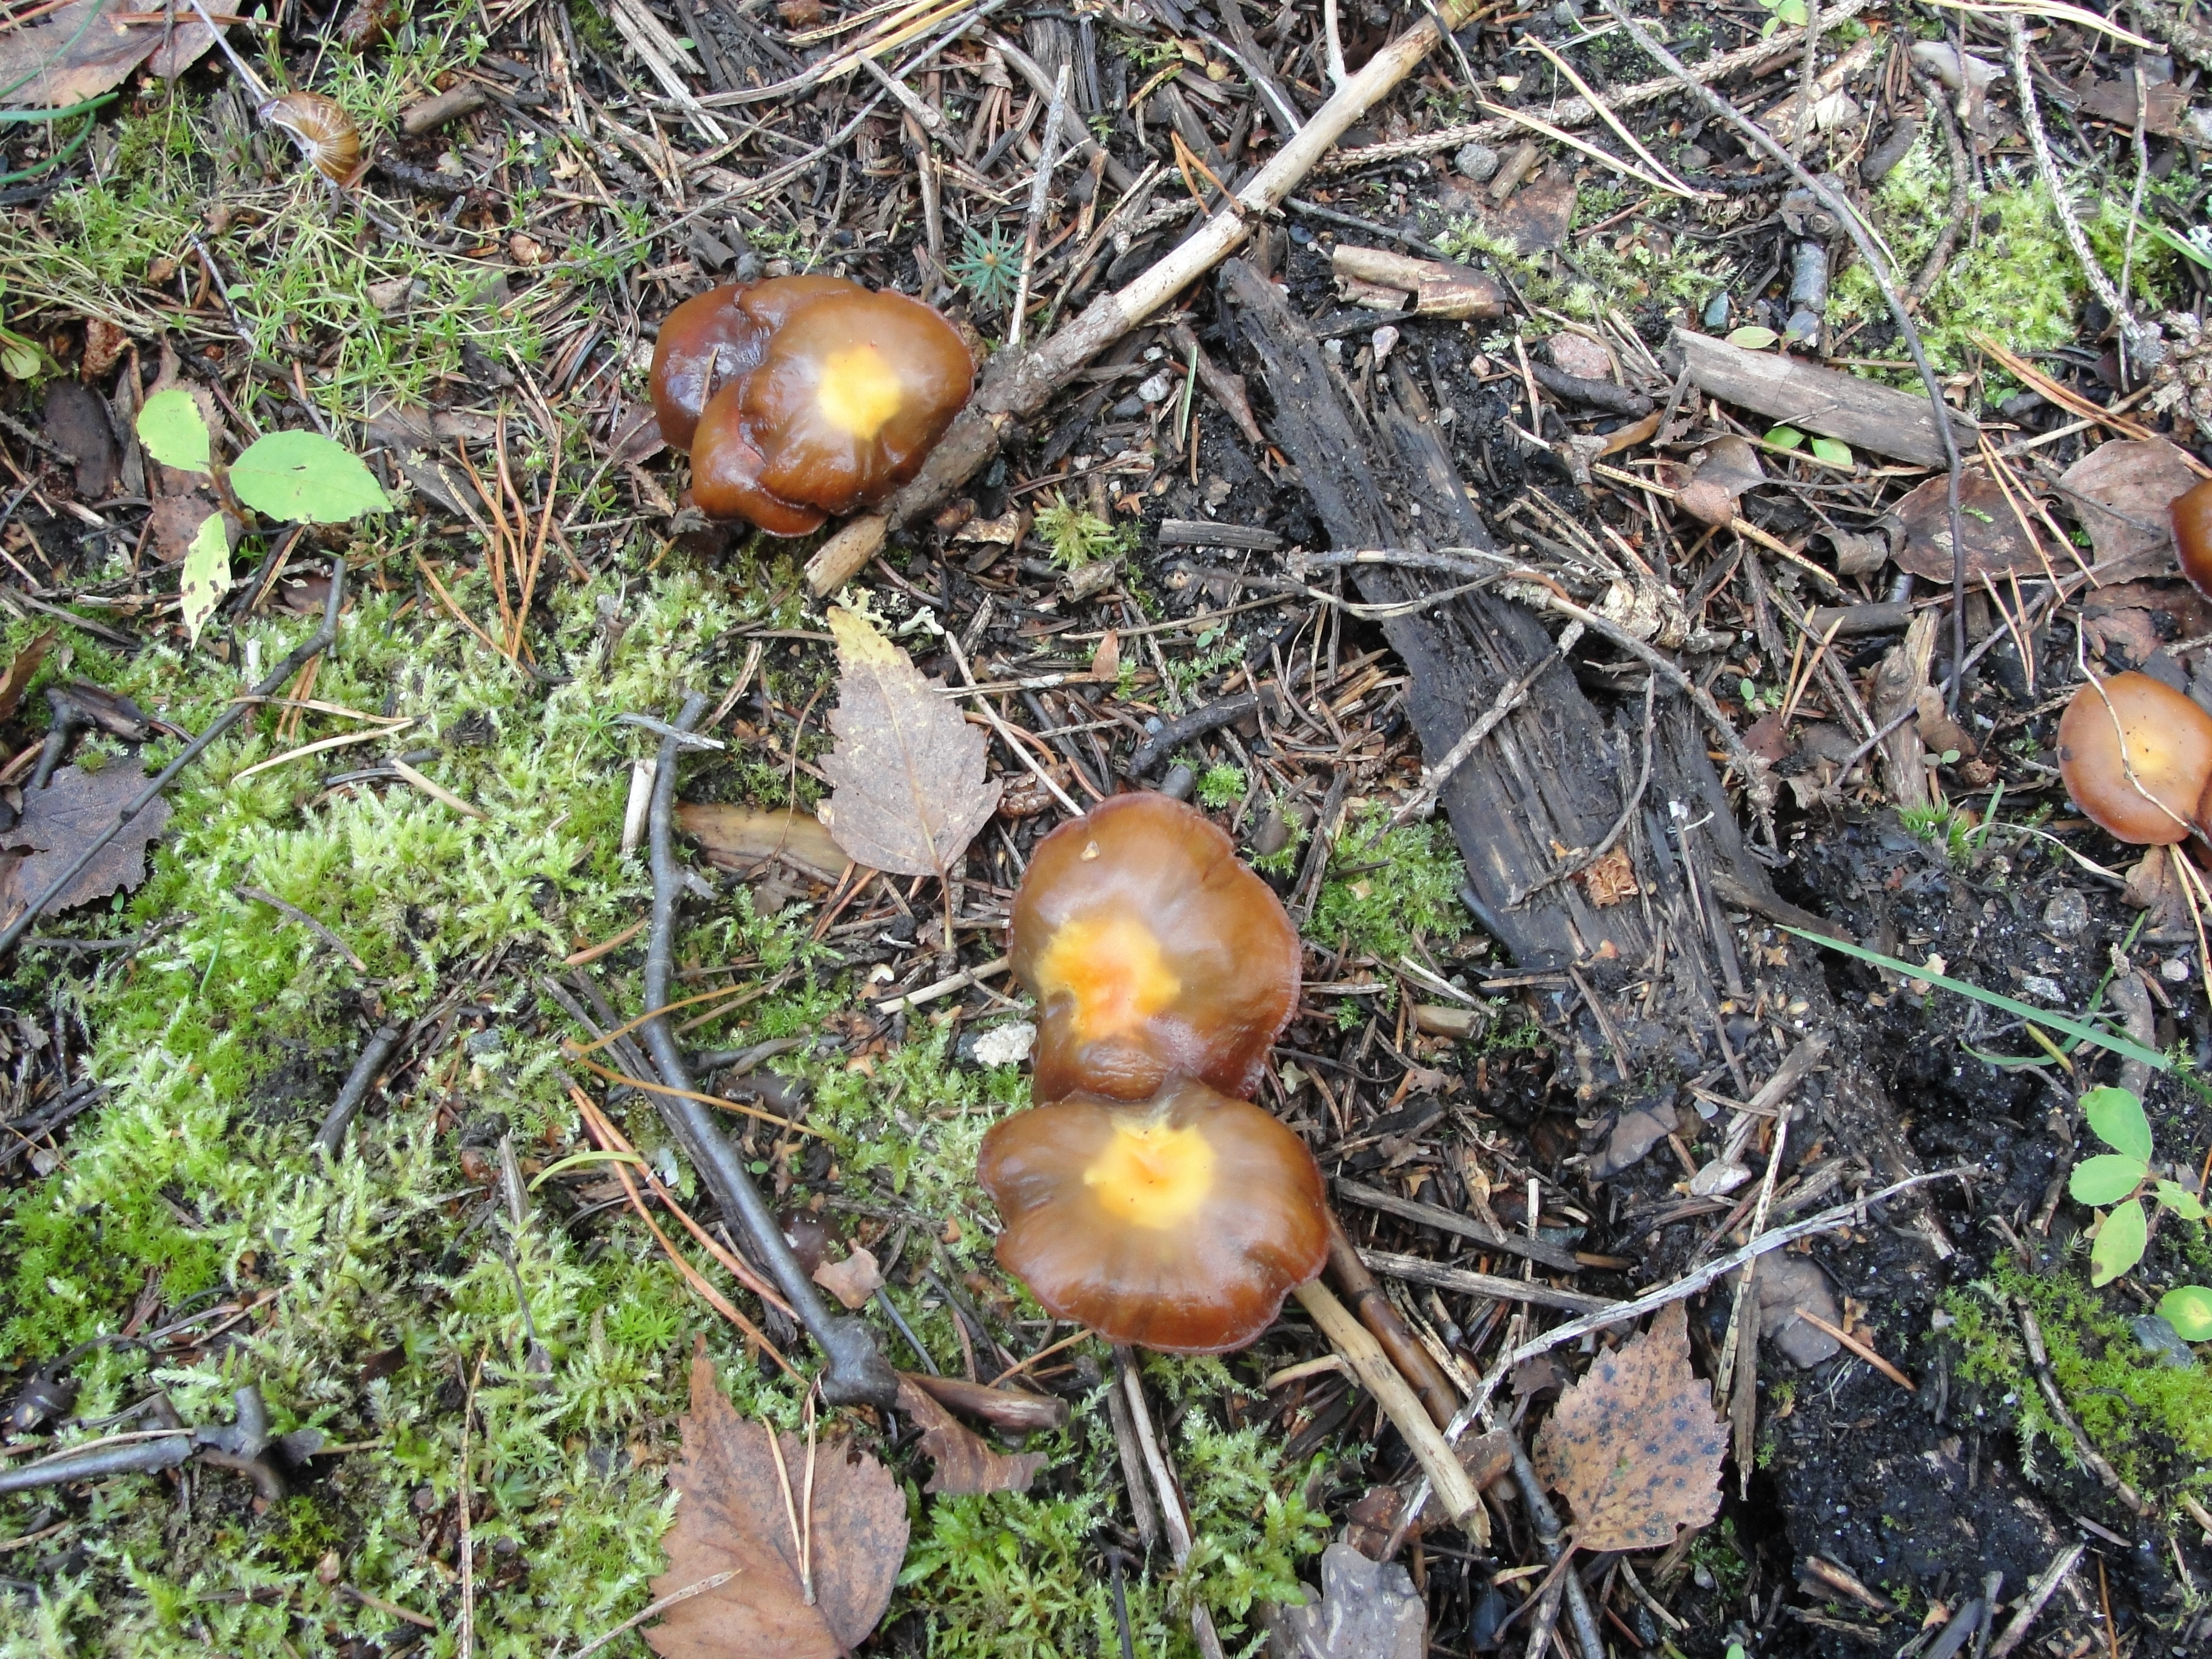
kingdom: Fungi
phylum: Basidiomycota
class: Agaricomycetes
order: Agaricales
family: Strophariaceae
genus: Kuehneromyces
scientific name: Kuehneromyces mutabilis
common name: Sheathed woodtuft
